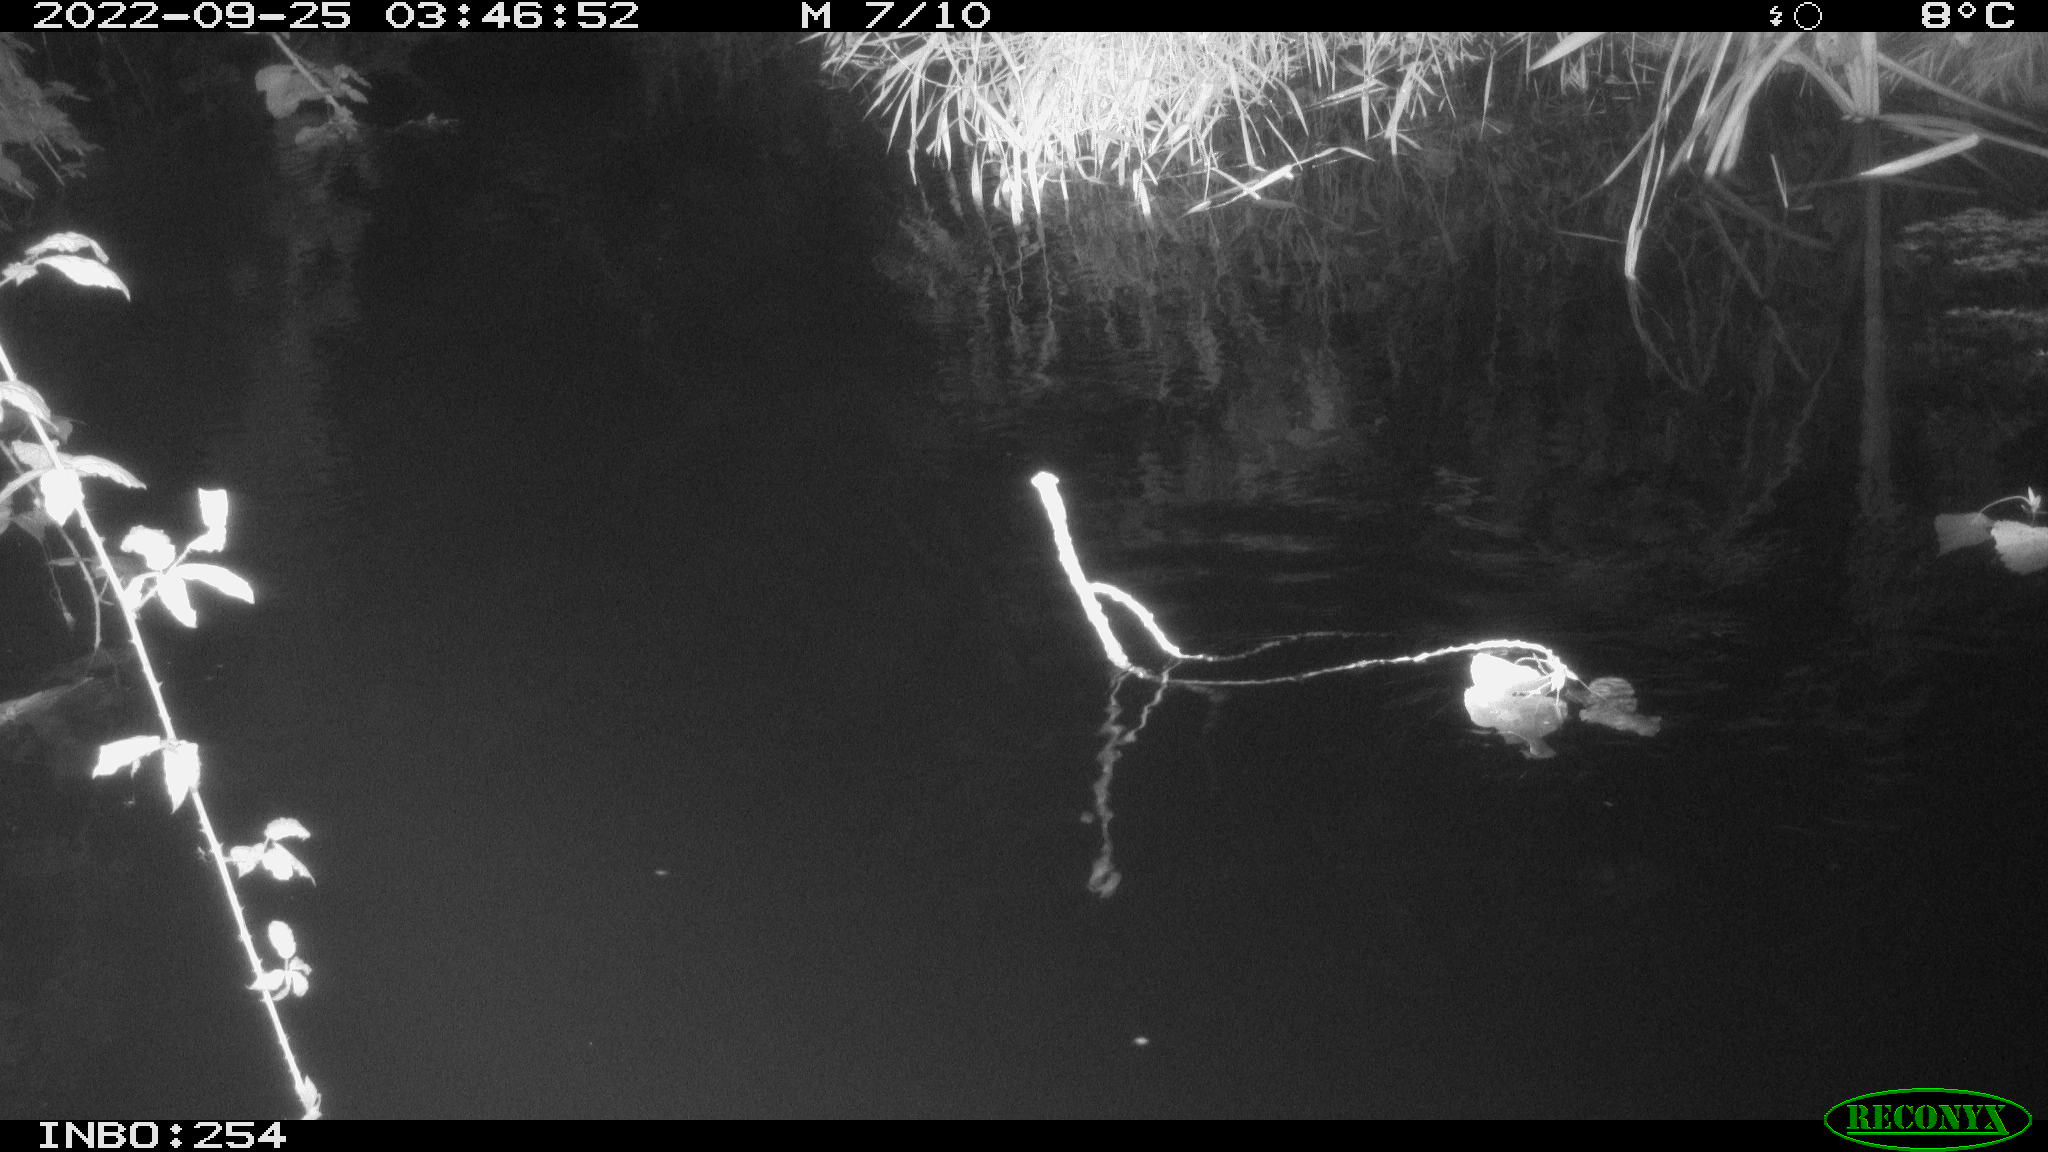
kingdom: Animalia
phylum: Chordata
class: Mammalia
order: Rodentia
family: Muridae
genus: Rattus
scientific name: Rattus norvegicus
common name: Brown rat
